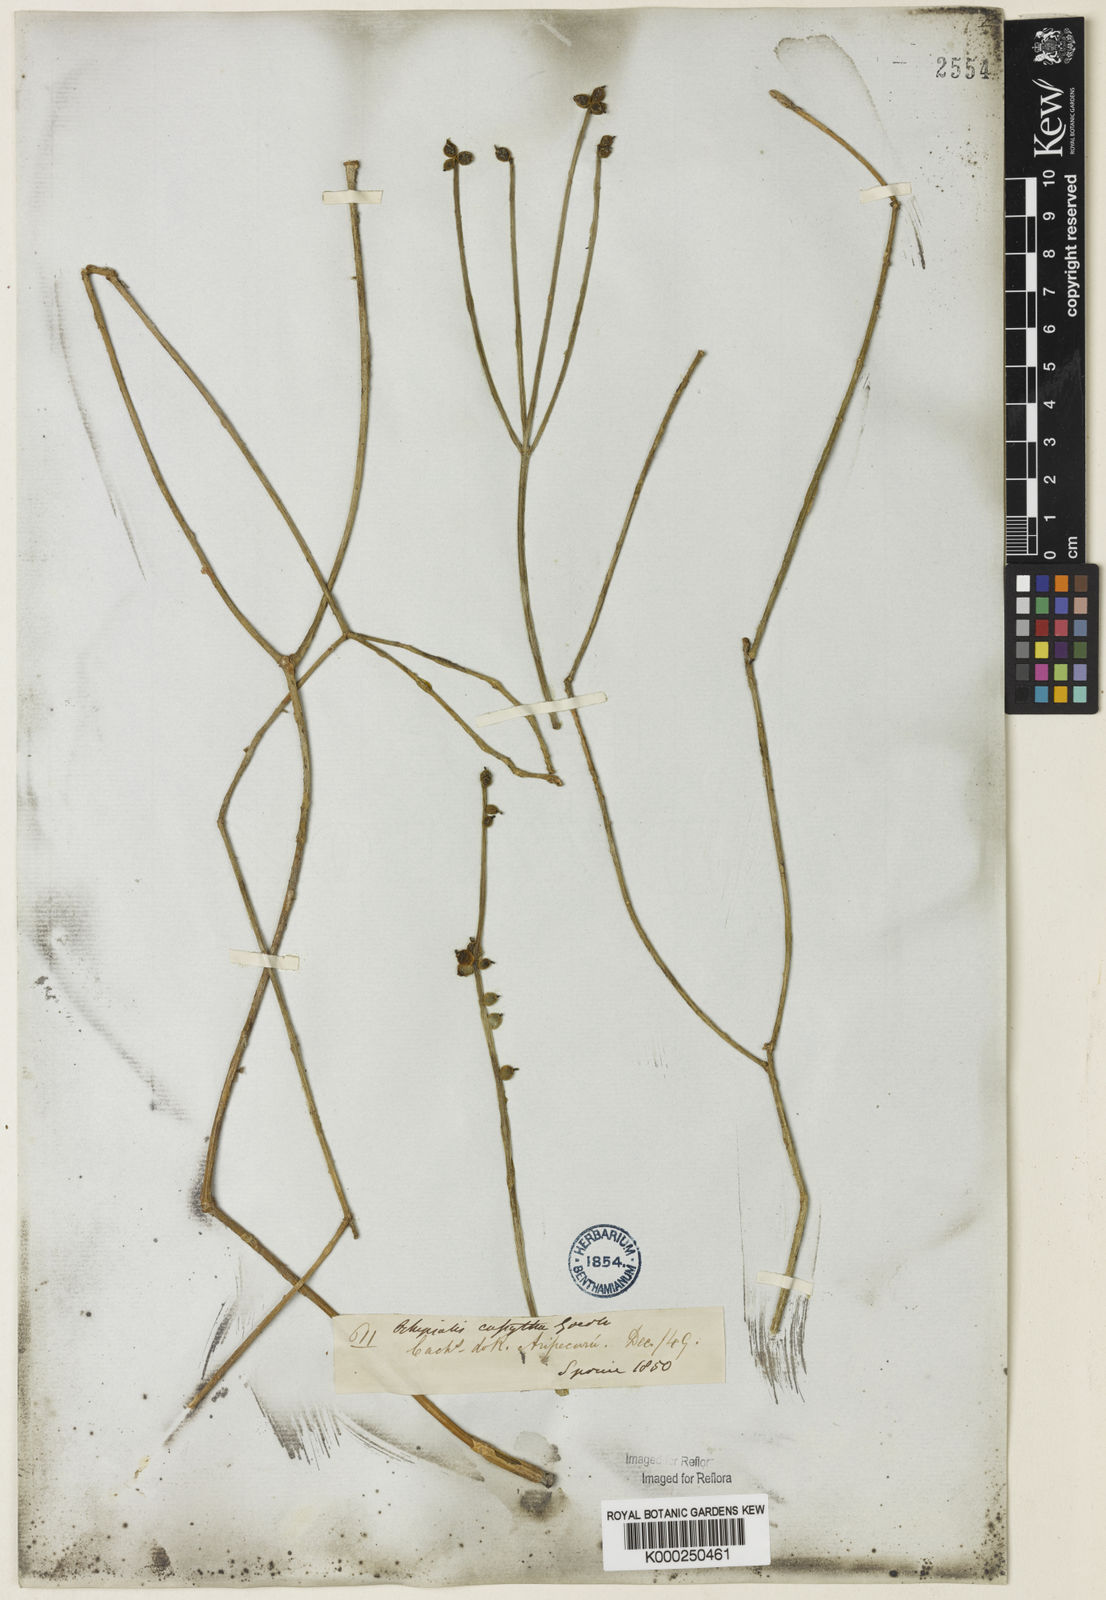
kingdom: Plantae
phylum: Tracheophyta
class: Magnoliopsida
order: Caryophyllales
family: Cactaceae
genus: Rhipsalis
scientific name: Rhipsalis baccifera
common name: Mistletoe cactus
